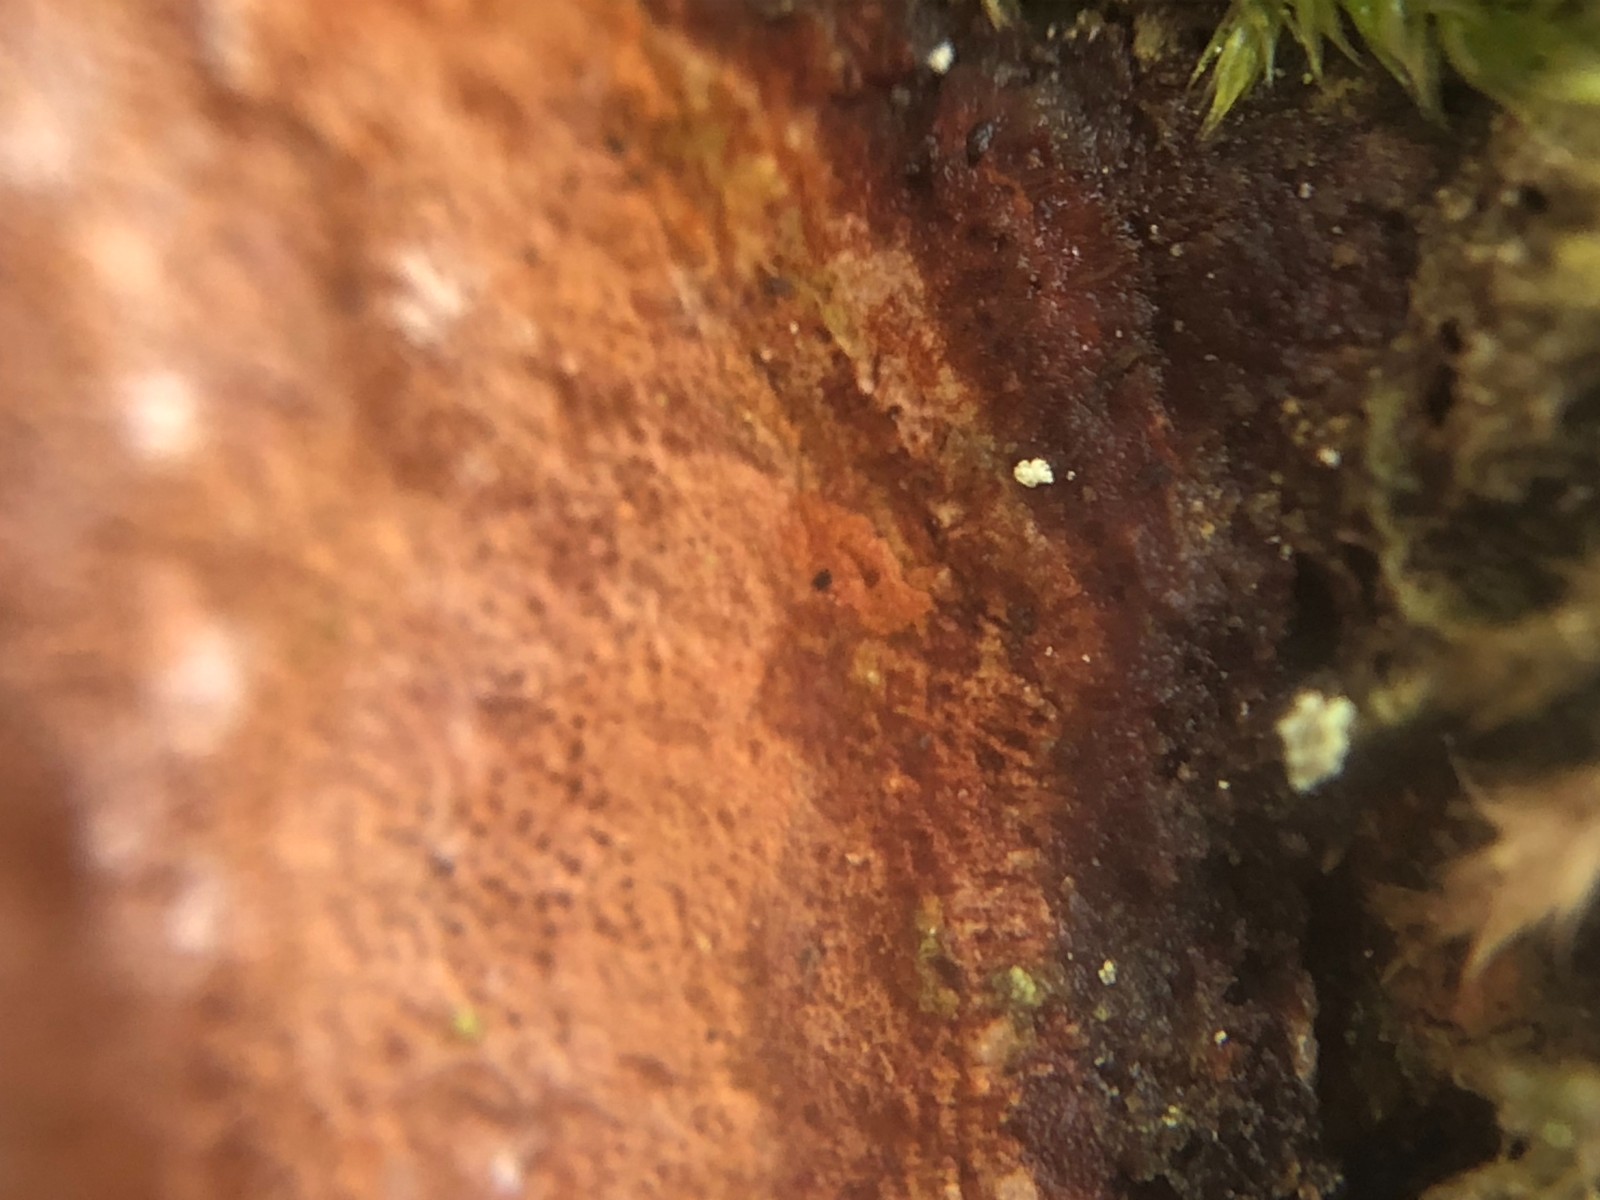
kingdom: Fungi
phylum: Basidiomycota
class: Agaricomycetes
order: Hymenochaetales
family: Hymenochaetaceae
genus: Fomitiporia
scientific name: Fomitiporia punctata
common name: pude-ildporesvamp
